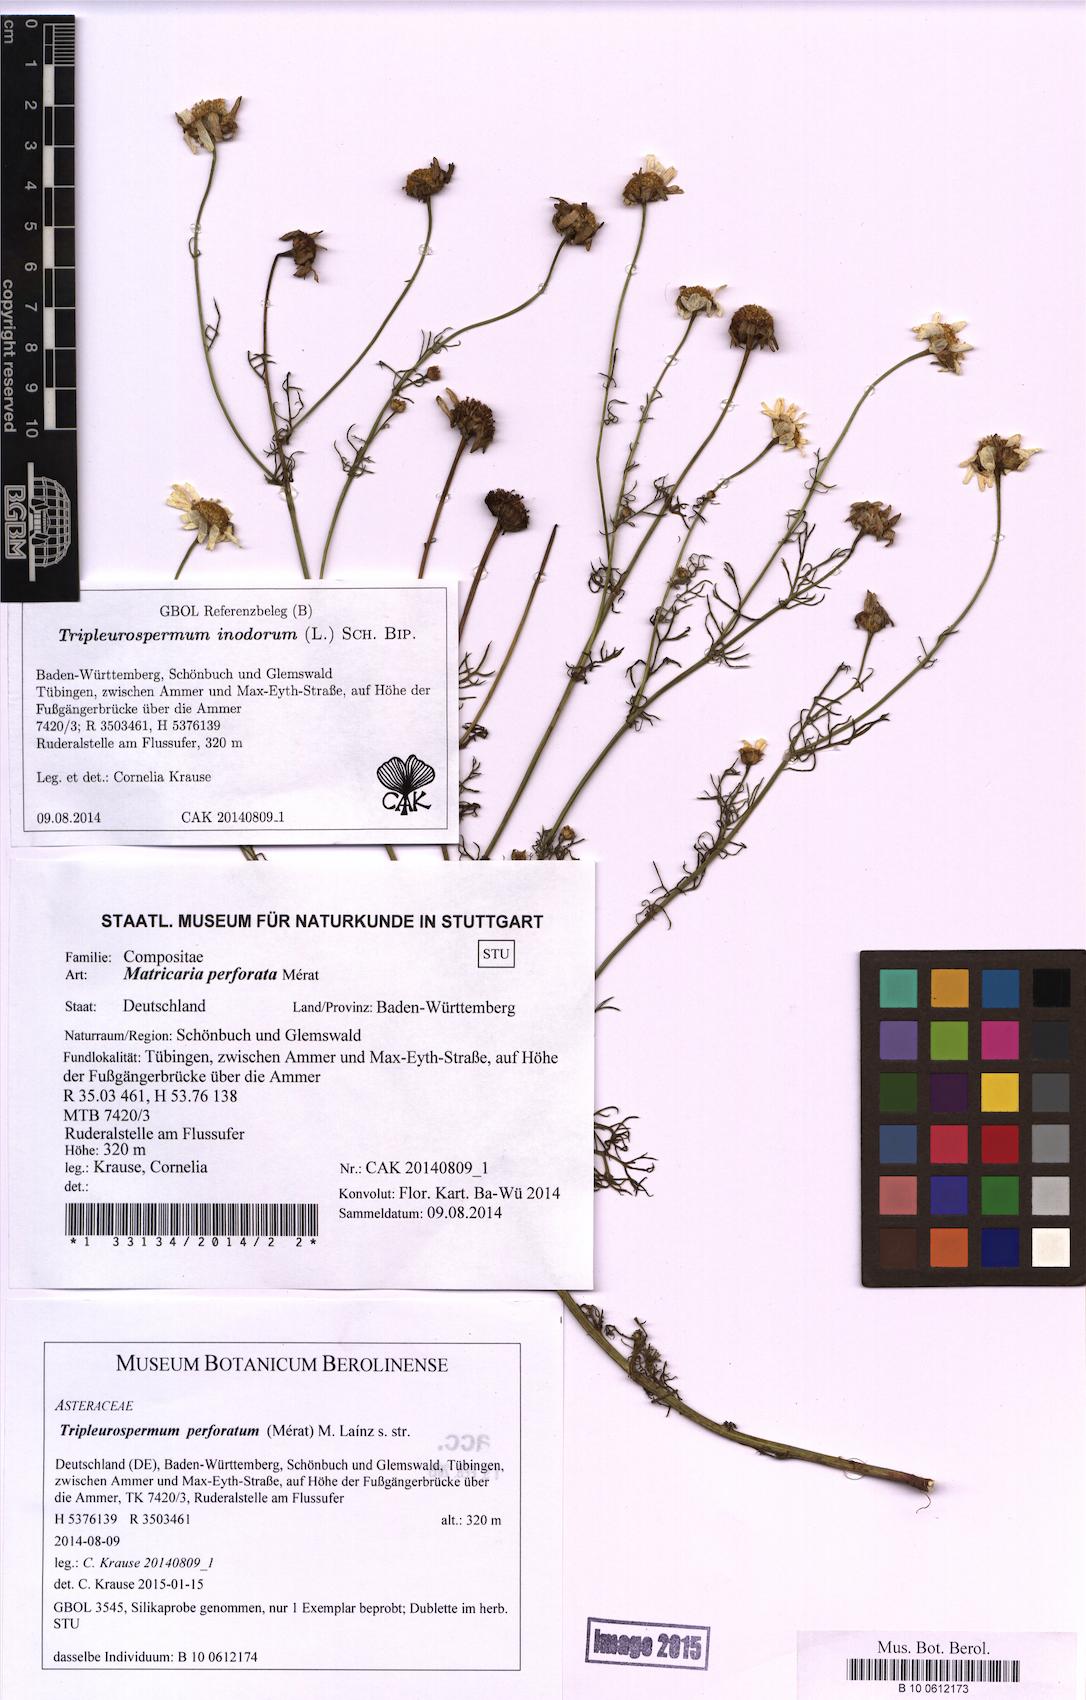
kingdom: Plantae
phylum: Tracheophyta
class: Magnoliopsida
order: Asterales
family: Asteraceae
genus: Tripleurospermum
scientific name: Tripleurospermum inodorum
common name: Scentless mayweed
